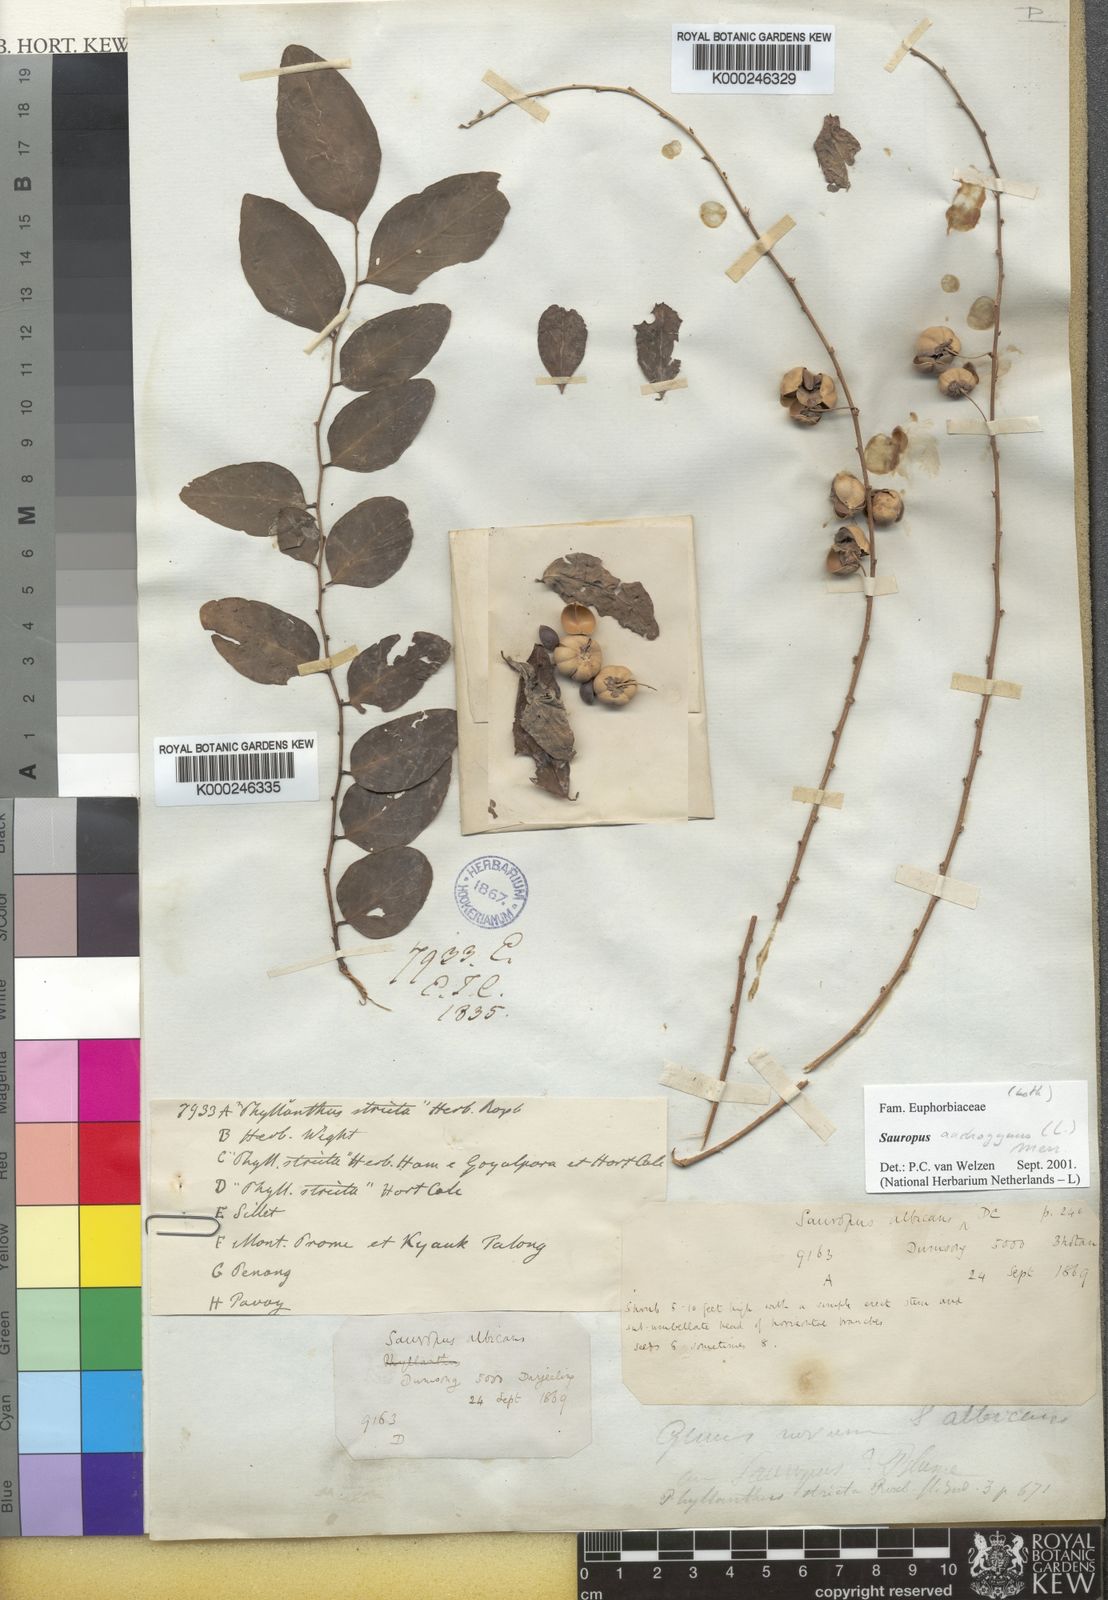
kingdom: Plantae
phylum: Tracheophyta
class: Magnoliopsida
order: Malpighiales
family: Phyllanthaceae
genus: Breynia
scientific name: Breynia androgyna
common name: Star gooseberry
